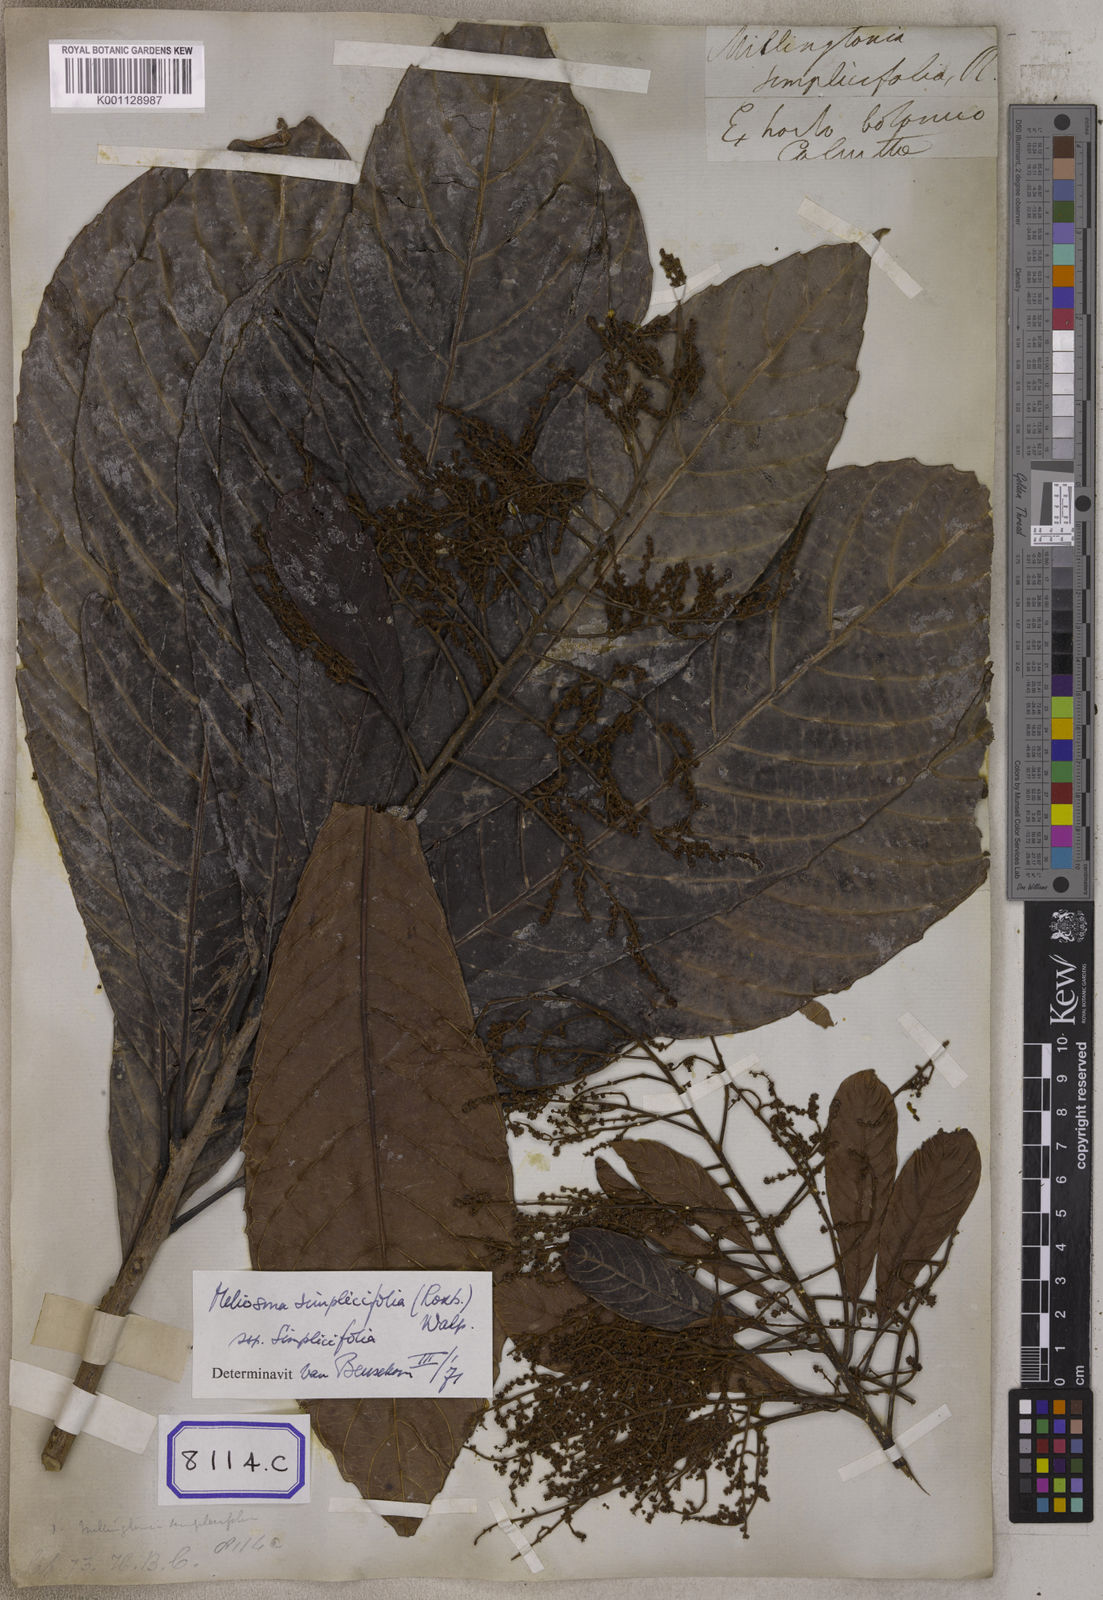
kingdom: Plantae
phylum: Tracheophyta
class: Magnoliopsida
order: Proteales
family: Sabiaceae
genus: Meliosma
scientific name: Meliosma simplicifolia
